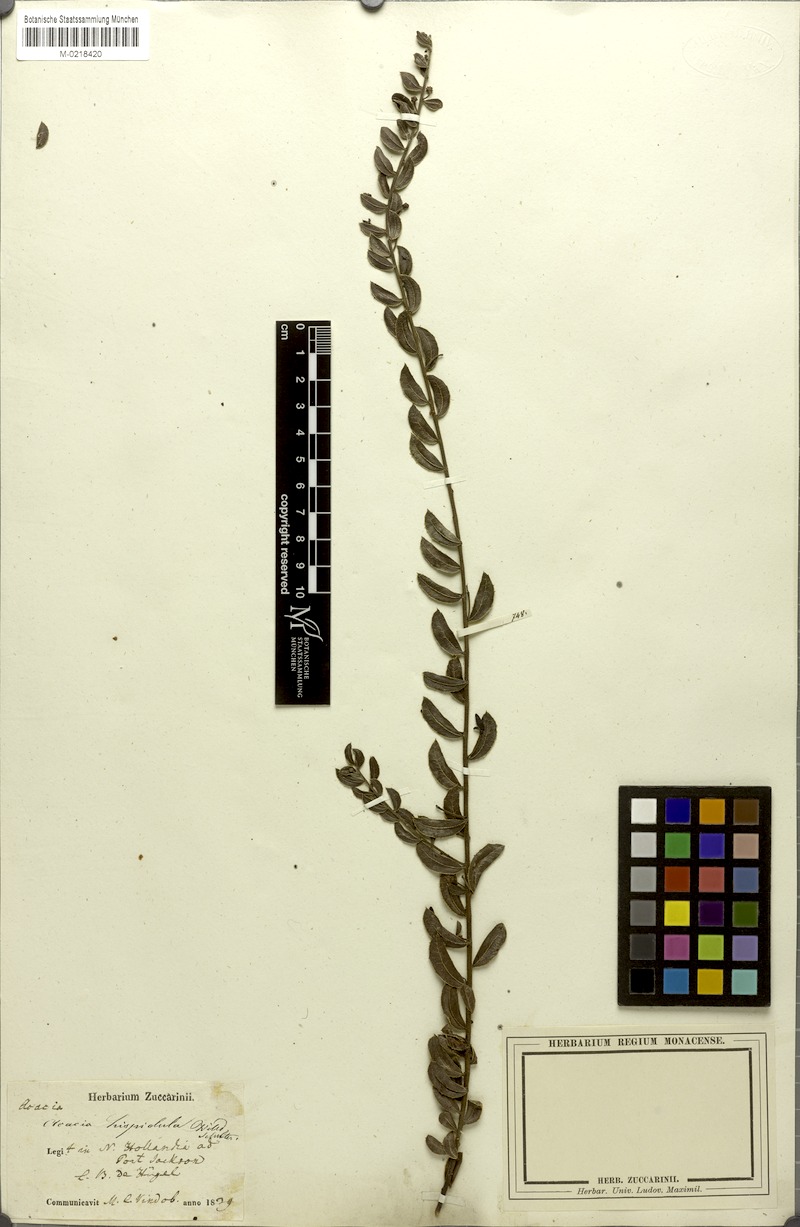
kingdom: Plantae
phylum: Tracheophyta
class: Magnoliopsida
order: Fabales
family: Fabaceae
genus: Acacia
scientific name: Acacia hispidula
